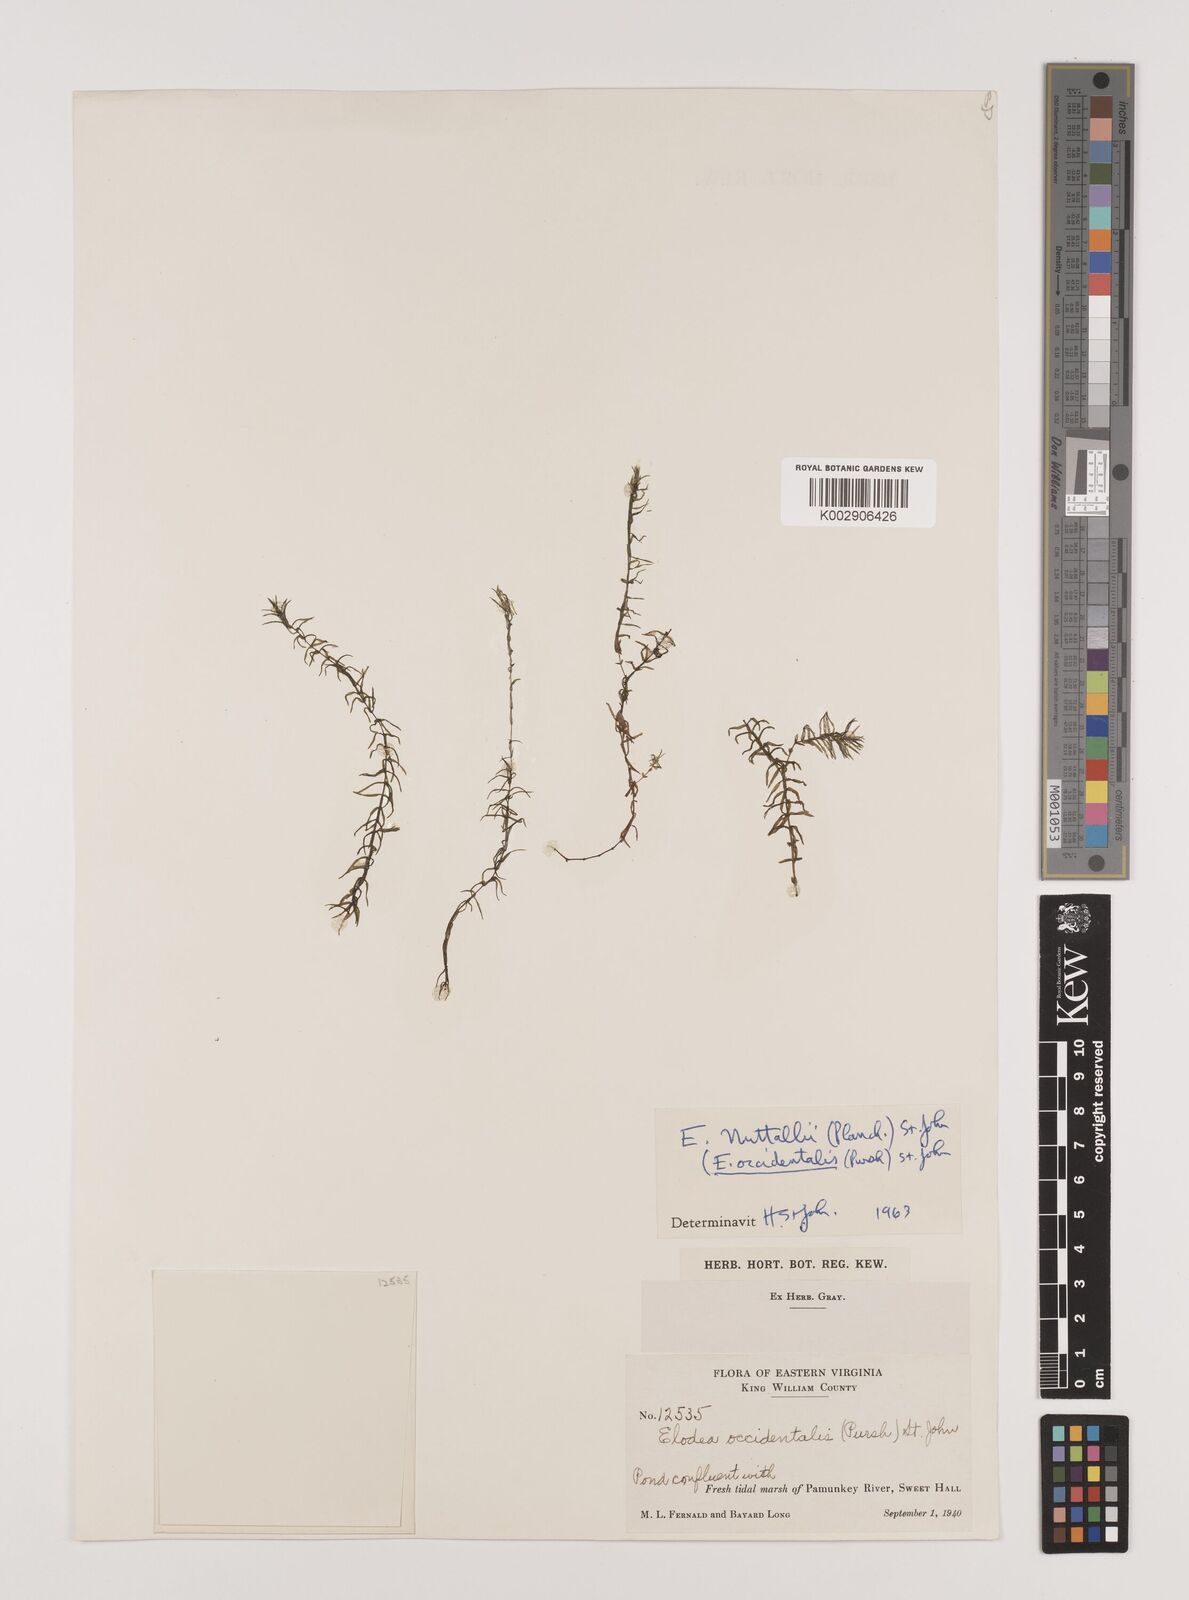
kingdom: Plantae
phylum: Tracheophyta
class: Liliopsida
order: Alismatales
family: Hydrocharitaceae
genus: Elodea
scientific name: Elodea nuttallii
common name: Nuttall's waterweed
